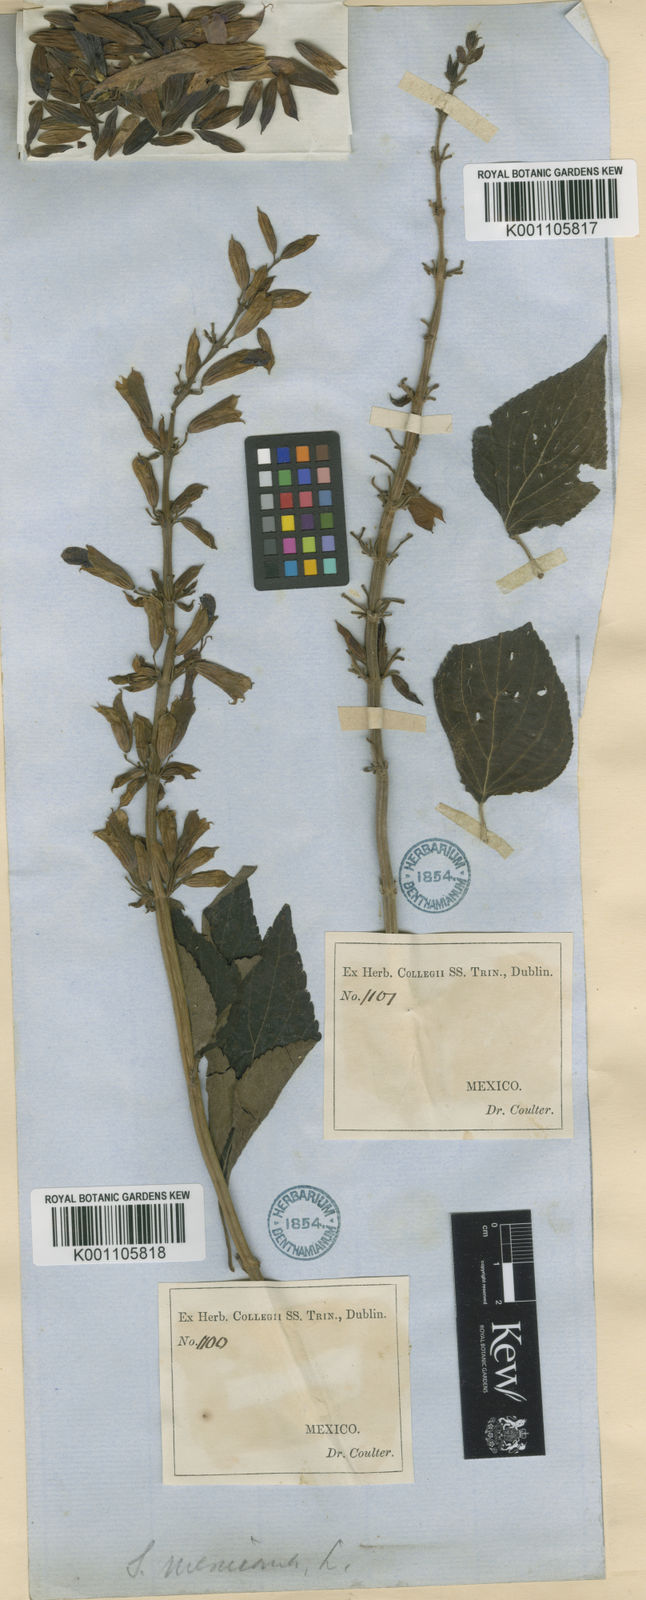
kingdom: Plantae
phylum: Tracheophyta
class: Magnoliopsida
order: Lamiales
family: Lamiaceae
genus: Salvia
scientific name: Salvia discolor
